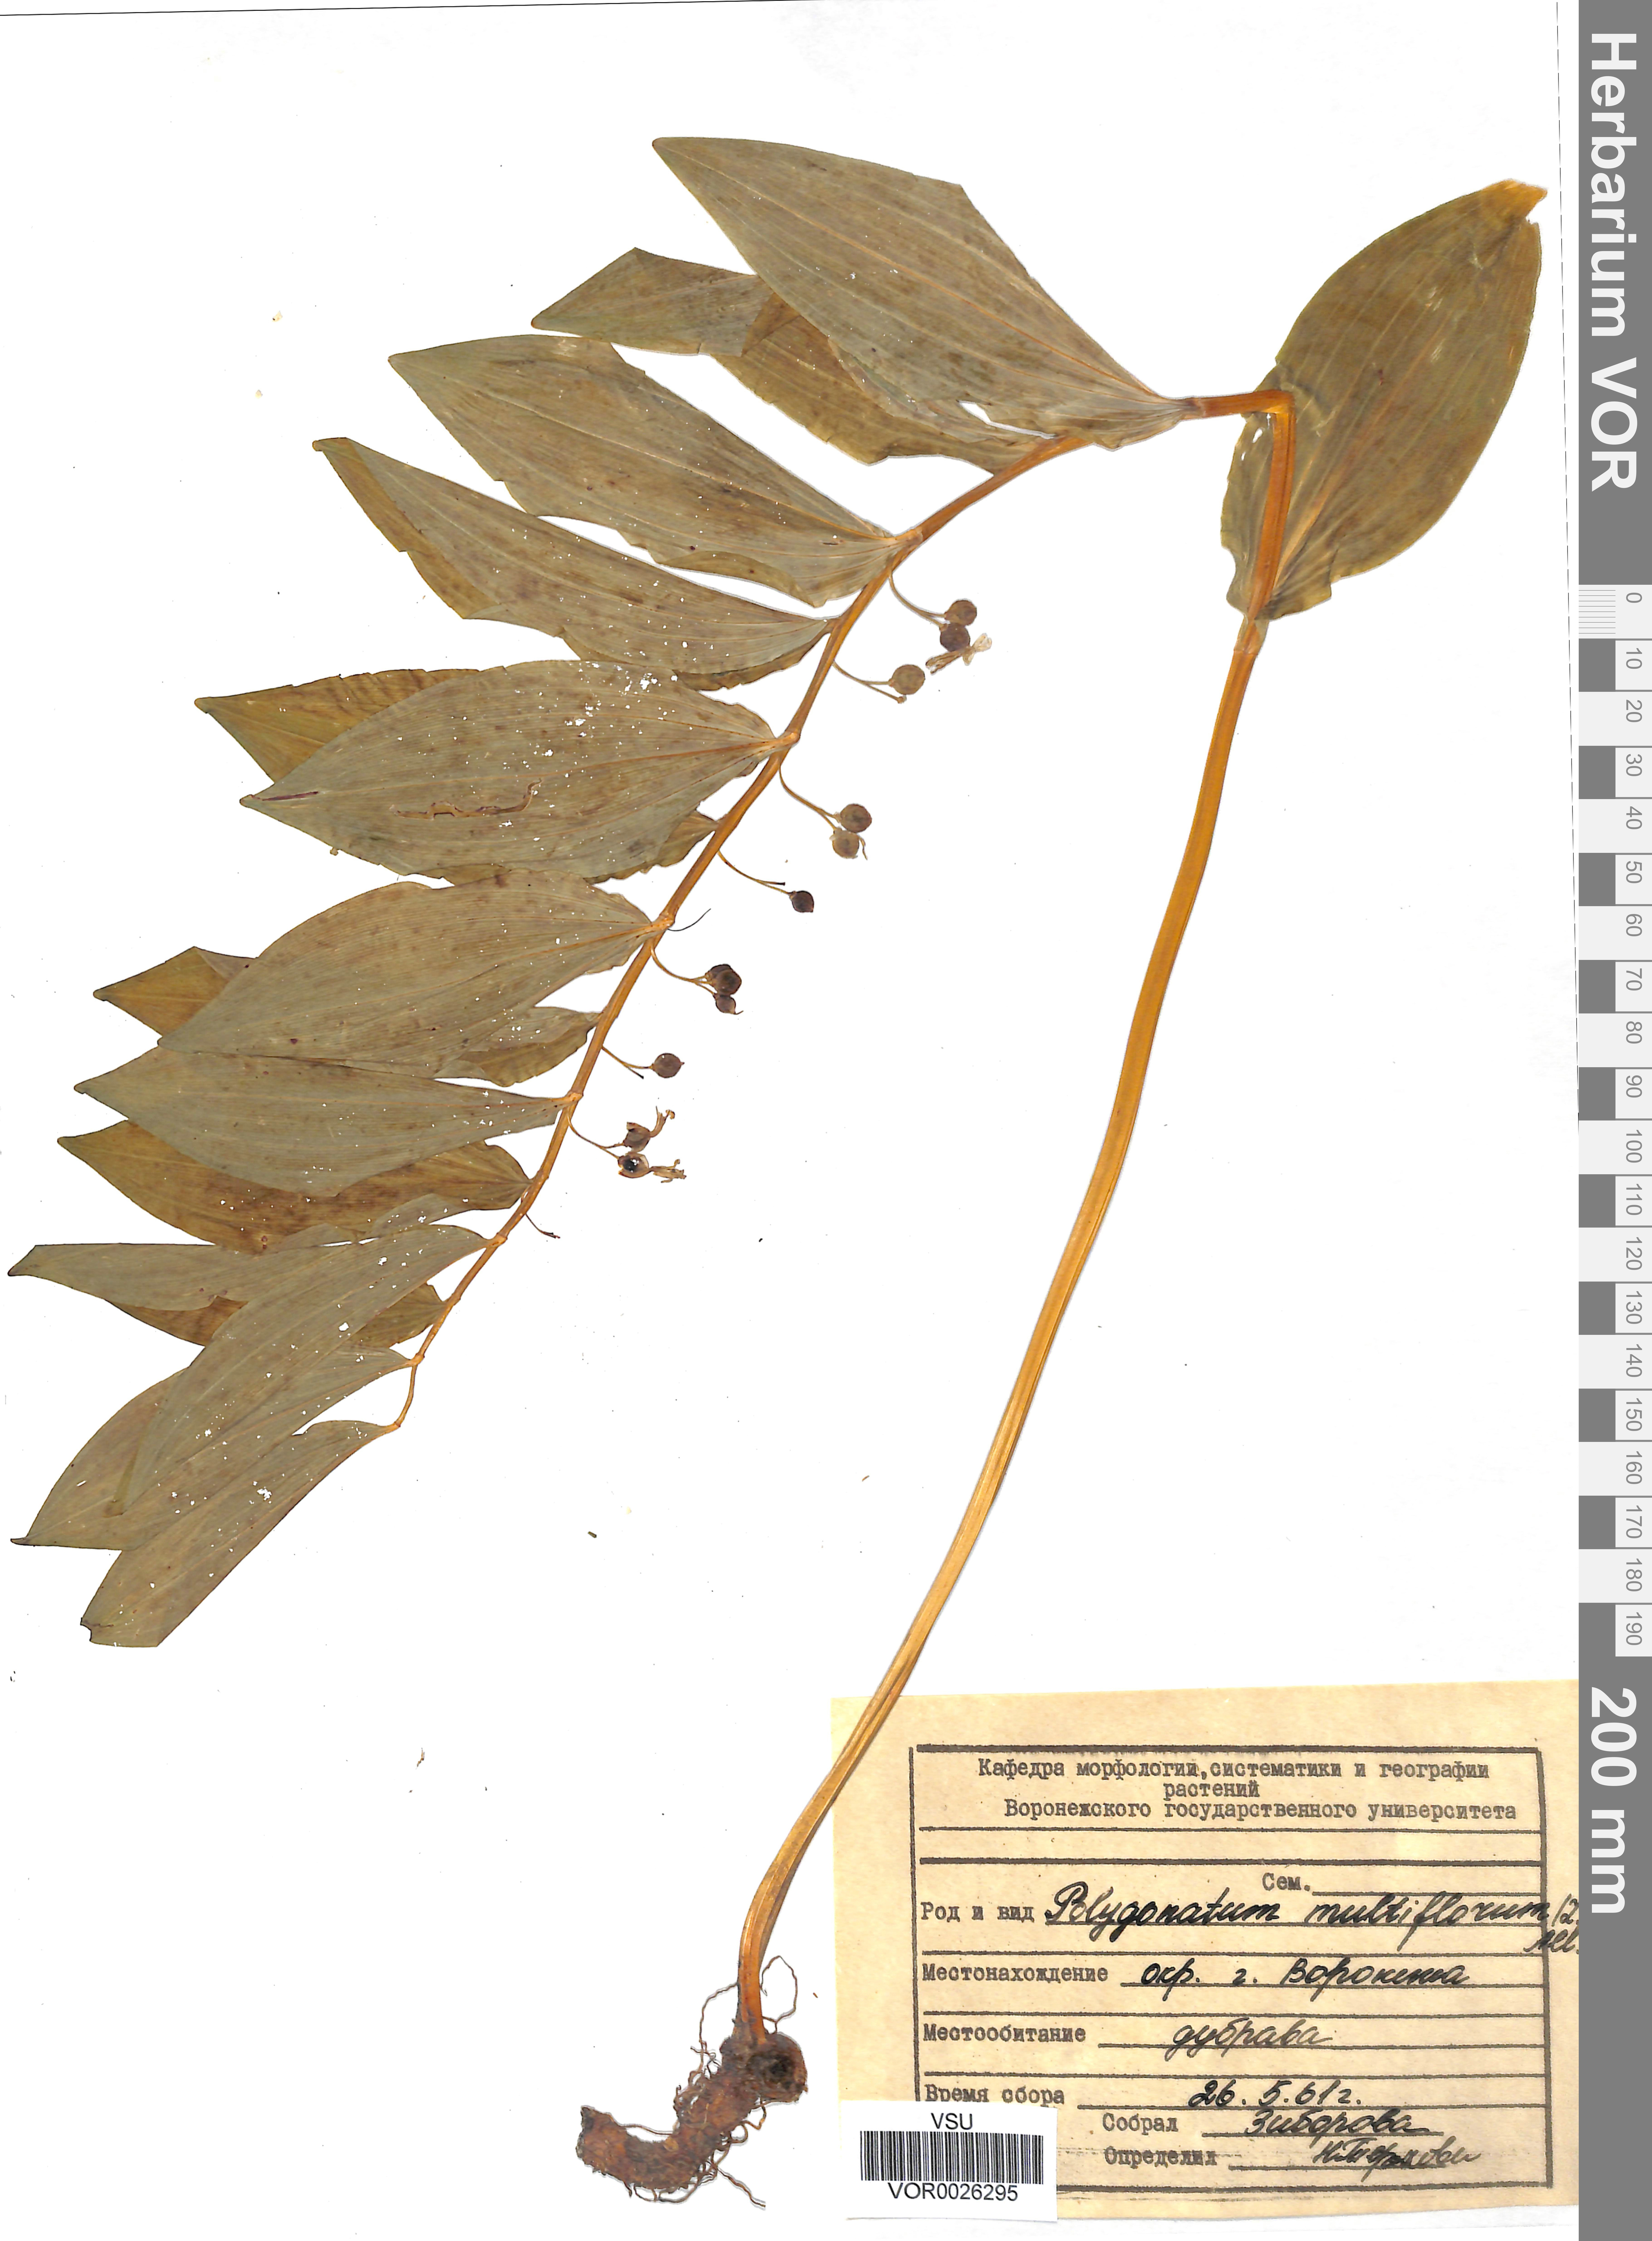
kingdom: Plantae
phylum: Tracheophyta
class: Liliopsida
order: Asparagales
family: Asparagaceae
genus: Polygonatum
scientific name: Polygonatum multiflorum
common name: Solomon's-seal
